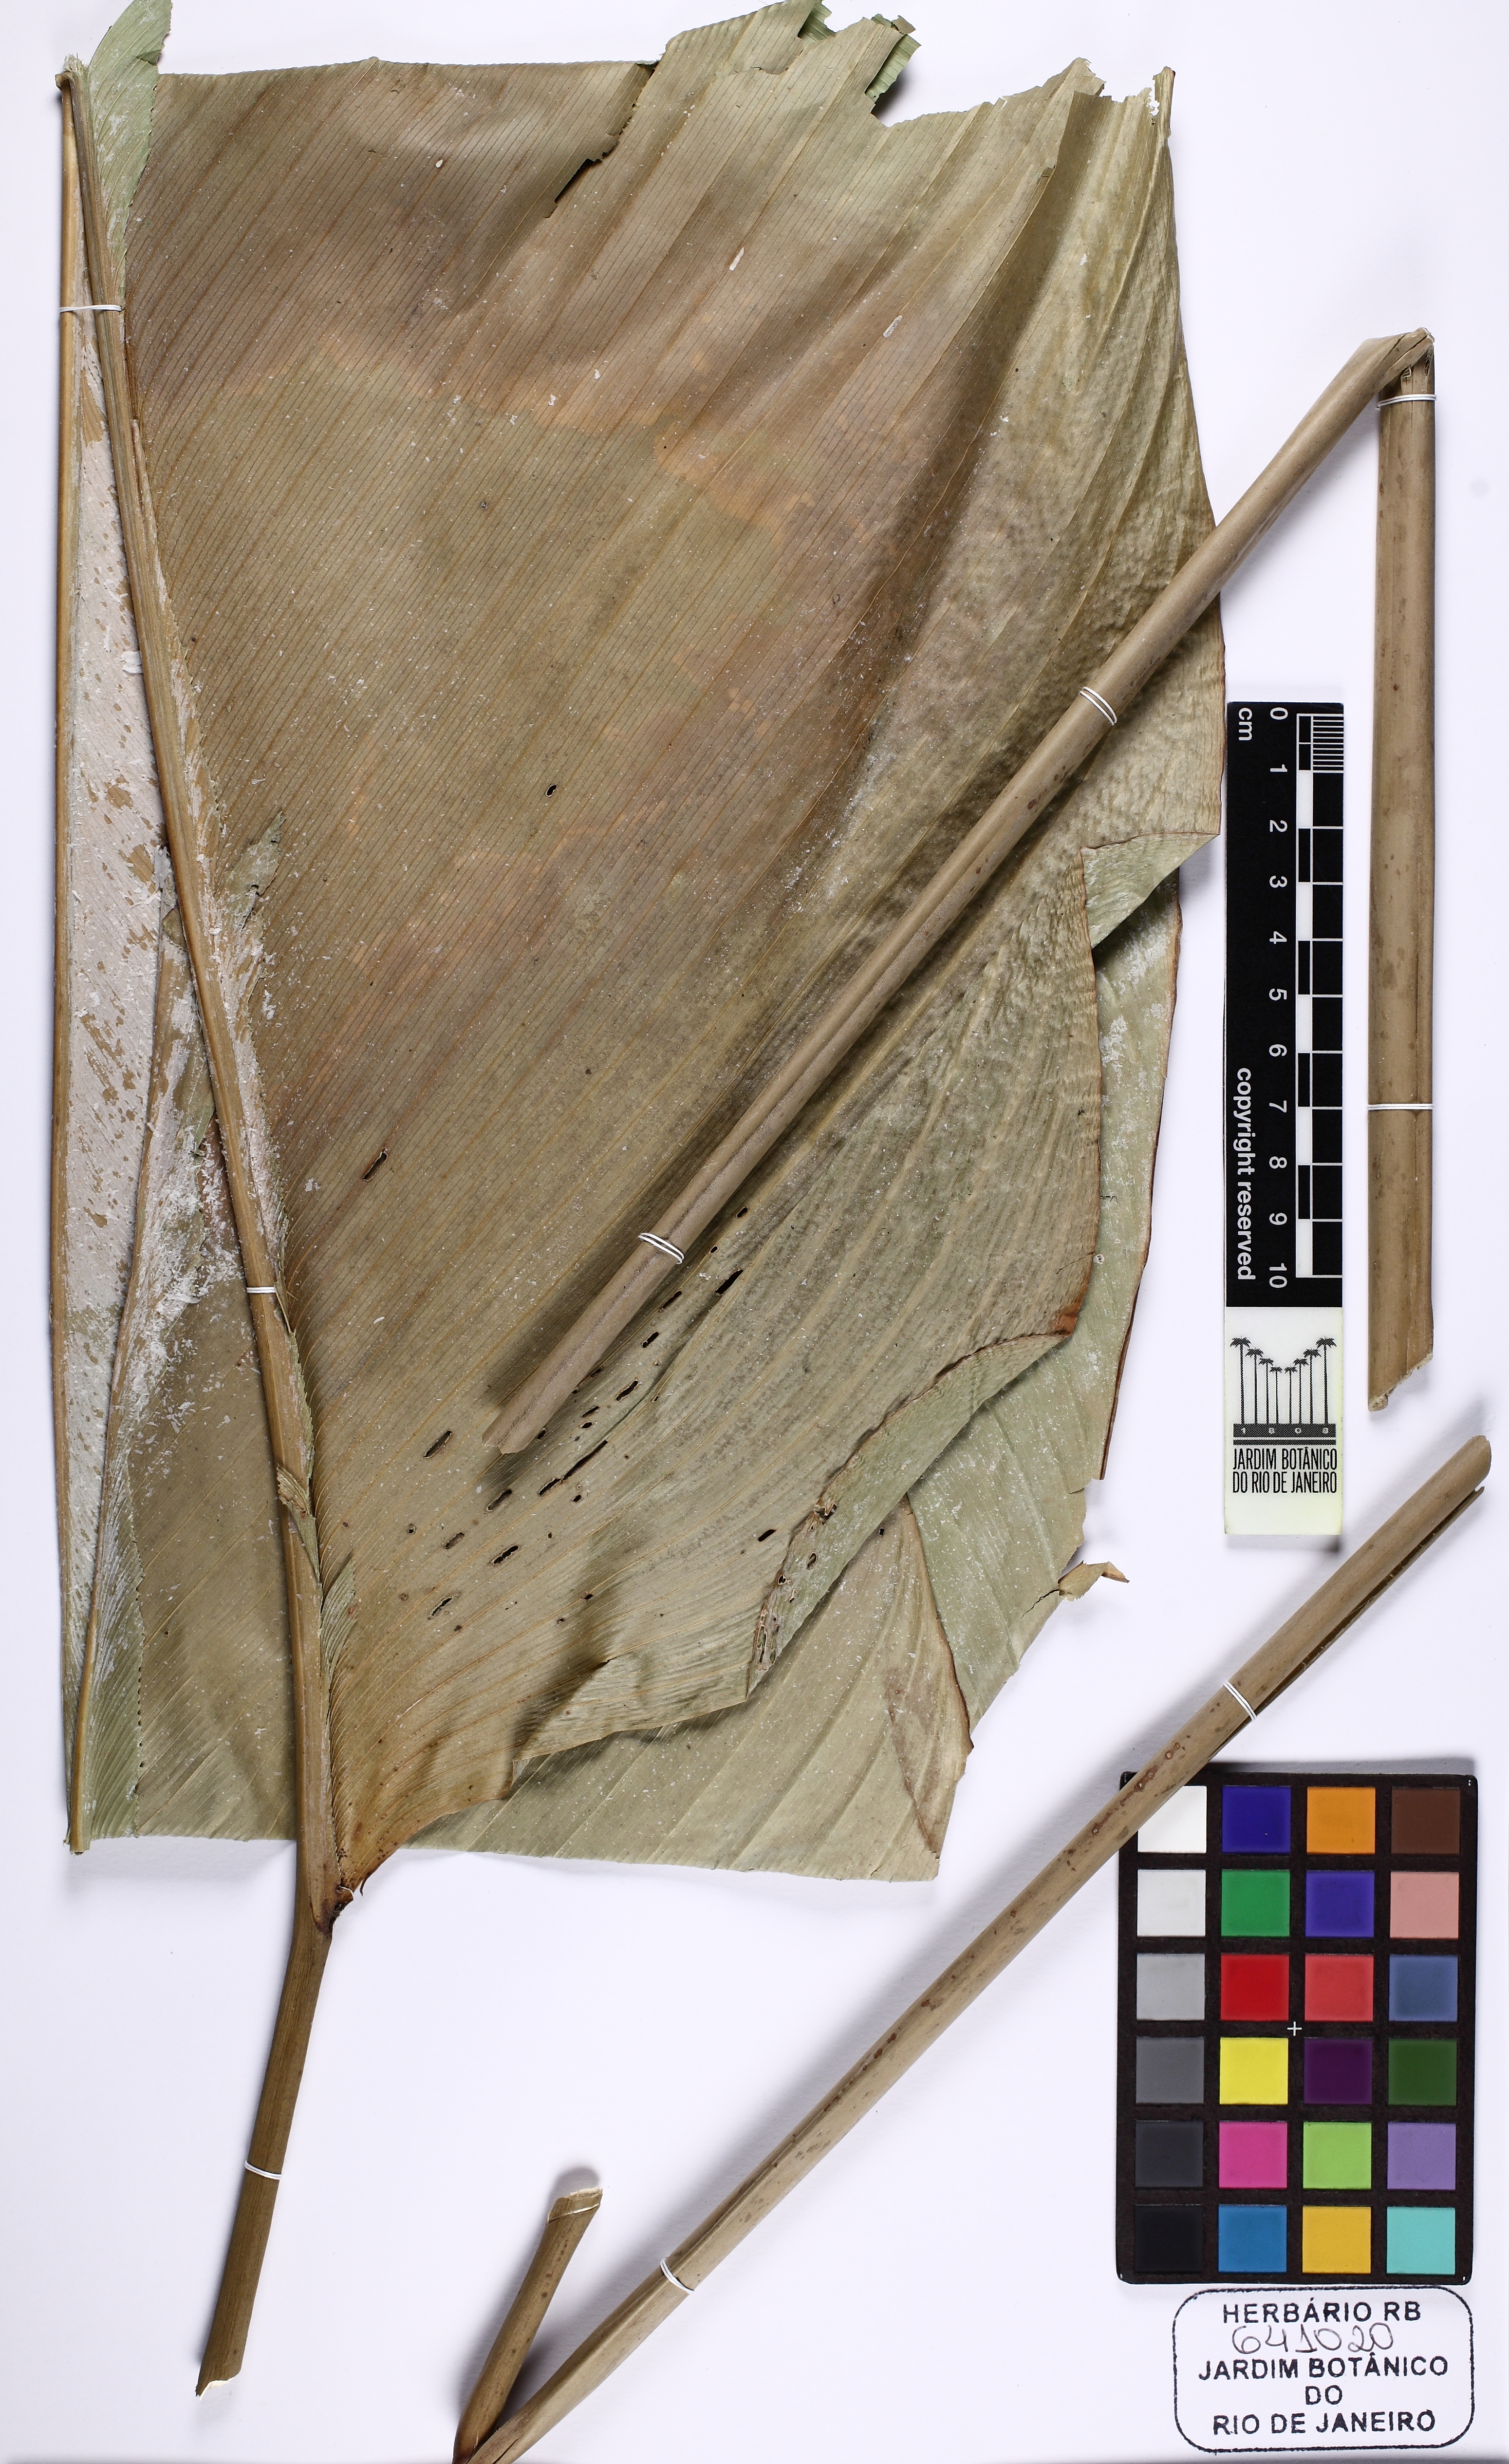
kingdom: Plantae
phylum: Tracheophyta
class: Liliopsida
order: Zingiberales
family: Marantaceae
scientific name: Marantaceae
